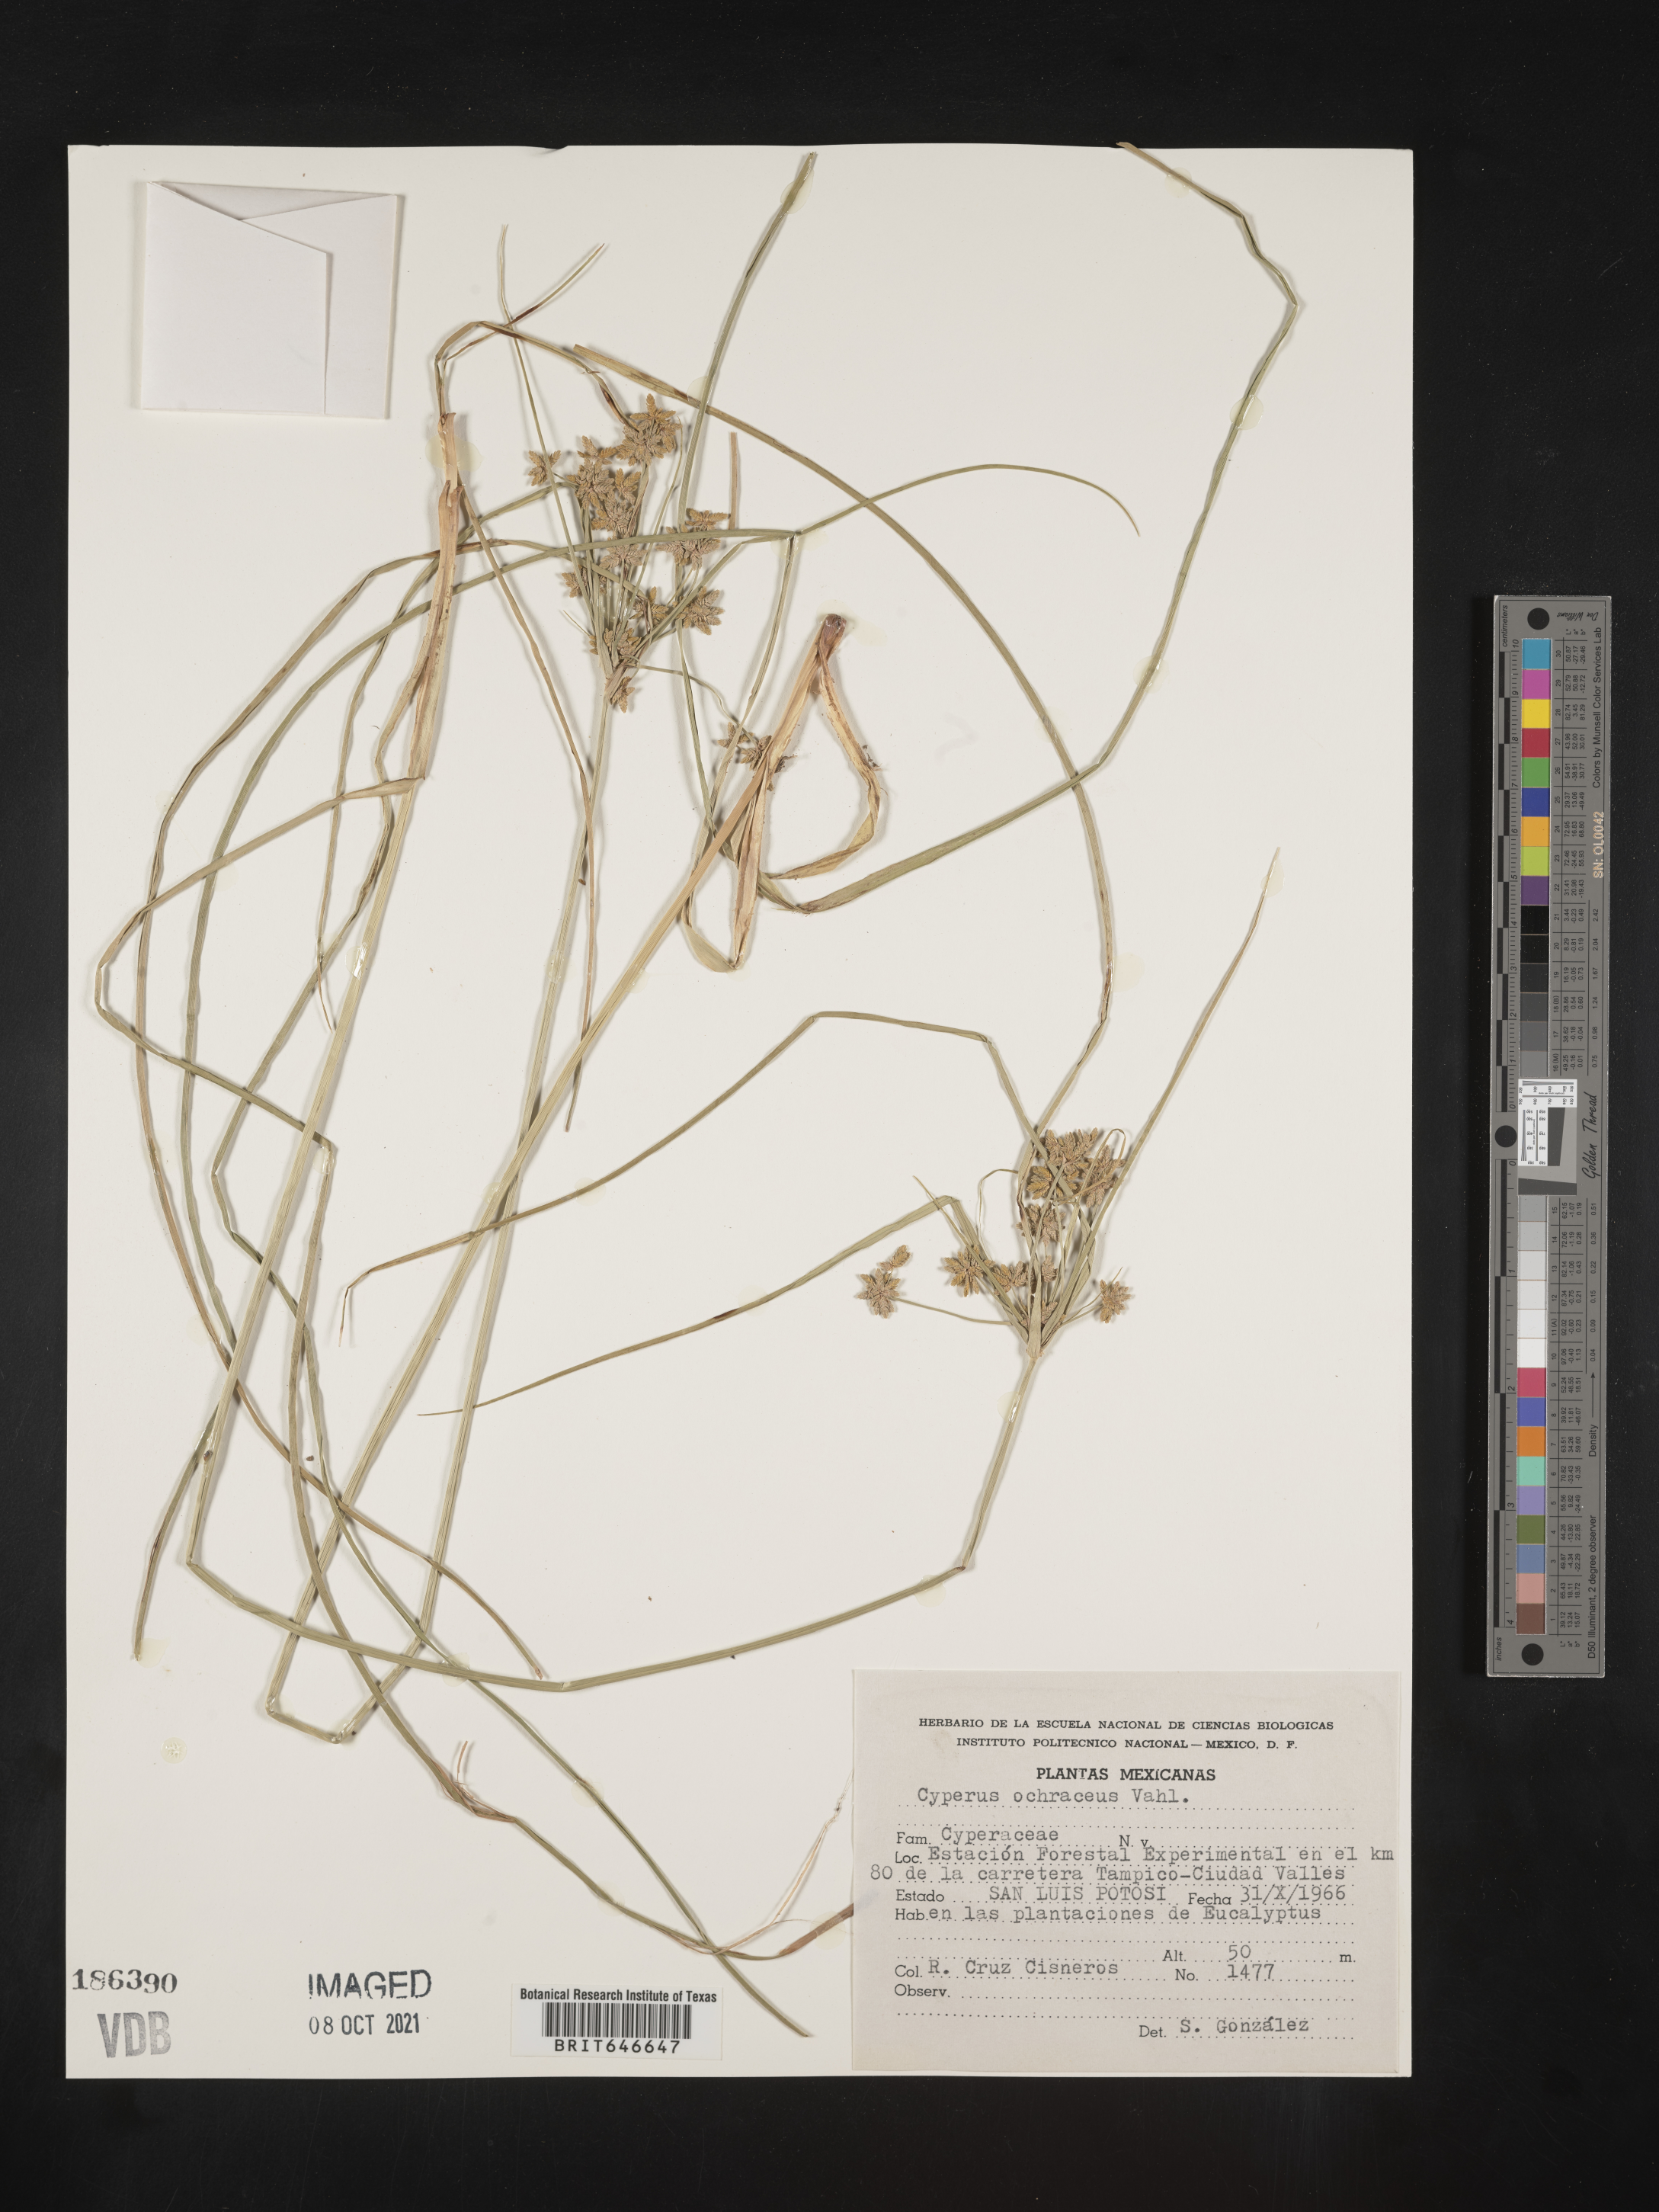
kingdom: Plantae
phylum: Tracheophyta
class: Liliopsida
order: Poales
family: Cyperaceae
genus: Cyperus
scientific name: Cyperus
